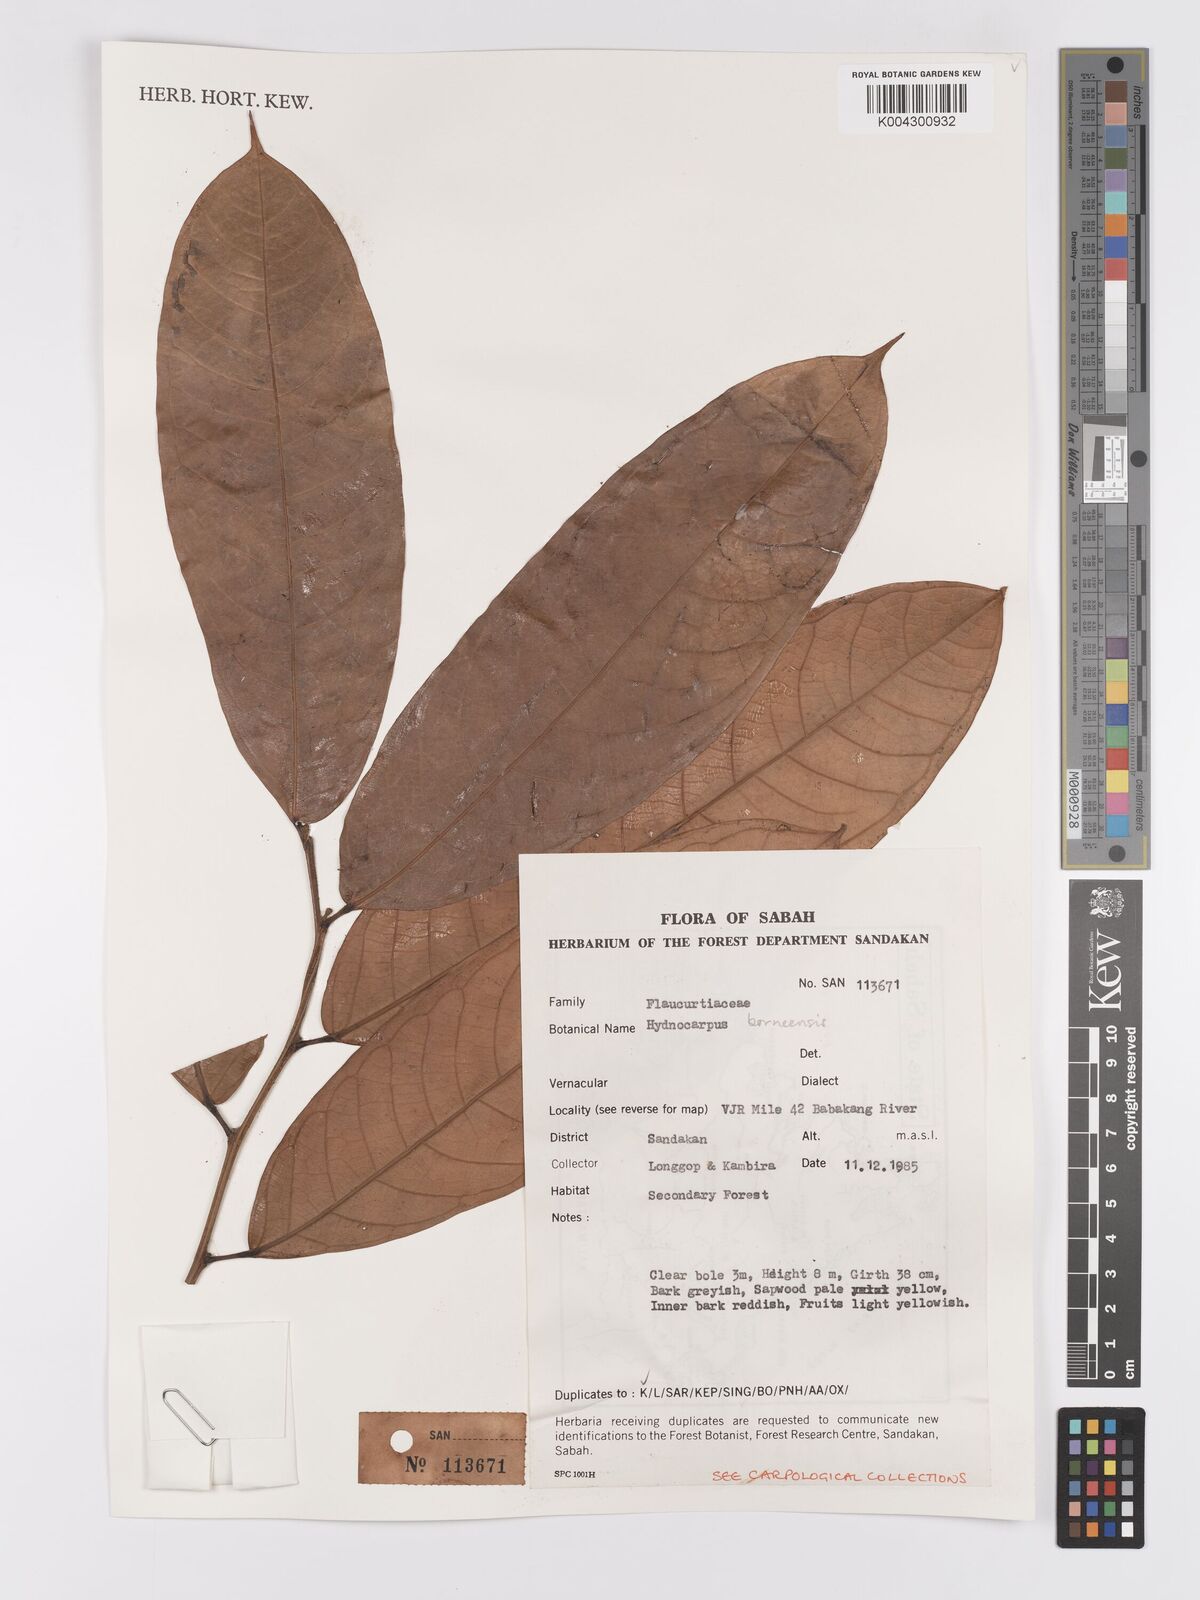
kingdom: Plantae
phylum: Tracheophyta
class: Magnoliopsida
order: Malpighiales
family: Achariaceae
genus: Hydnocarpus
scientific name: Hydnocarpus borneensis
